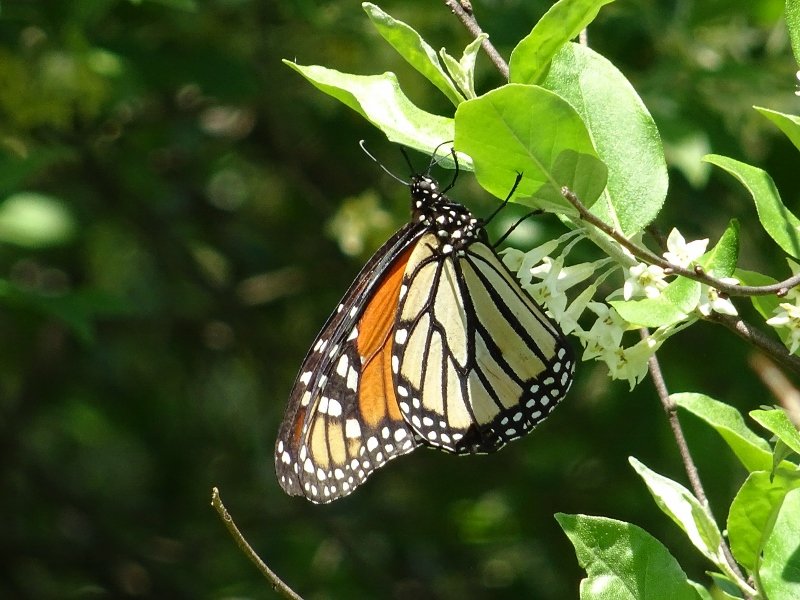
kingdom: Animalia
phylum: Arthropoda
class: Insecta
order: Lepidoptera
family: Nymphalidae
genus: Danaus
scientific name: Danaus plexippus
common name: Monarch
